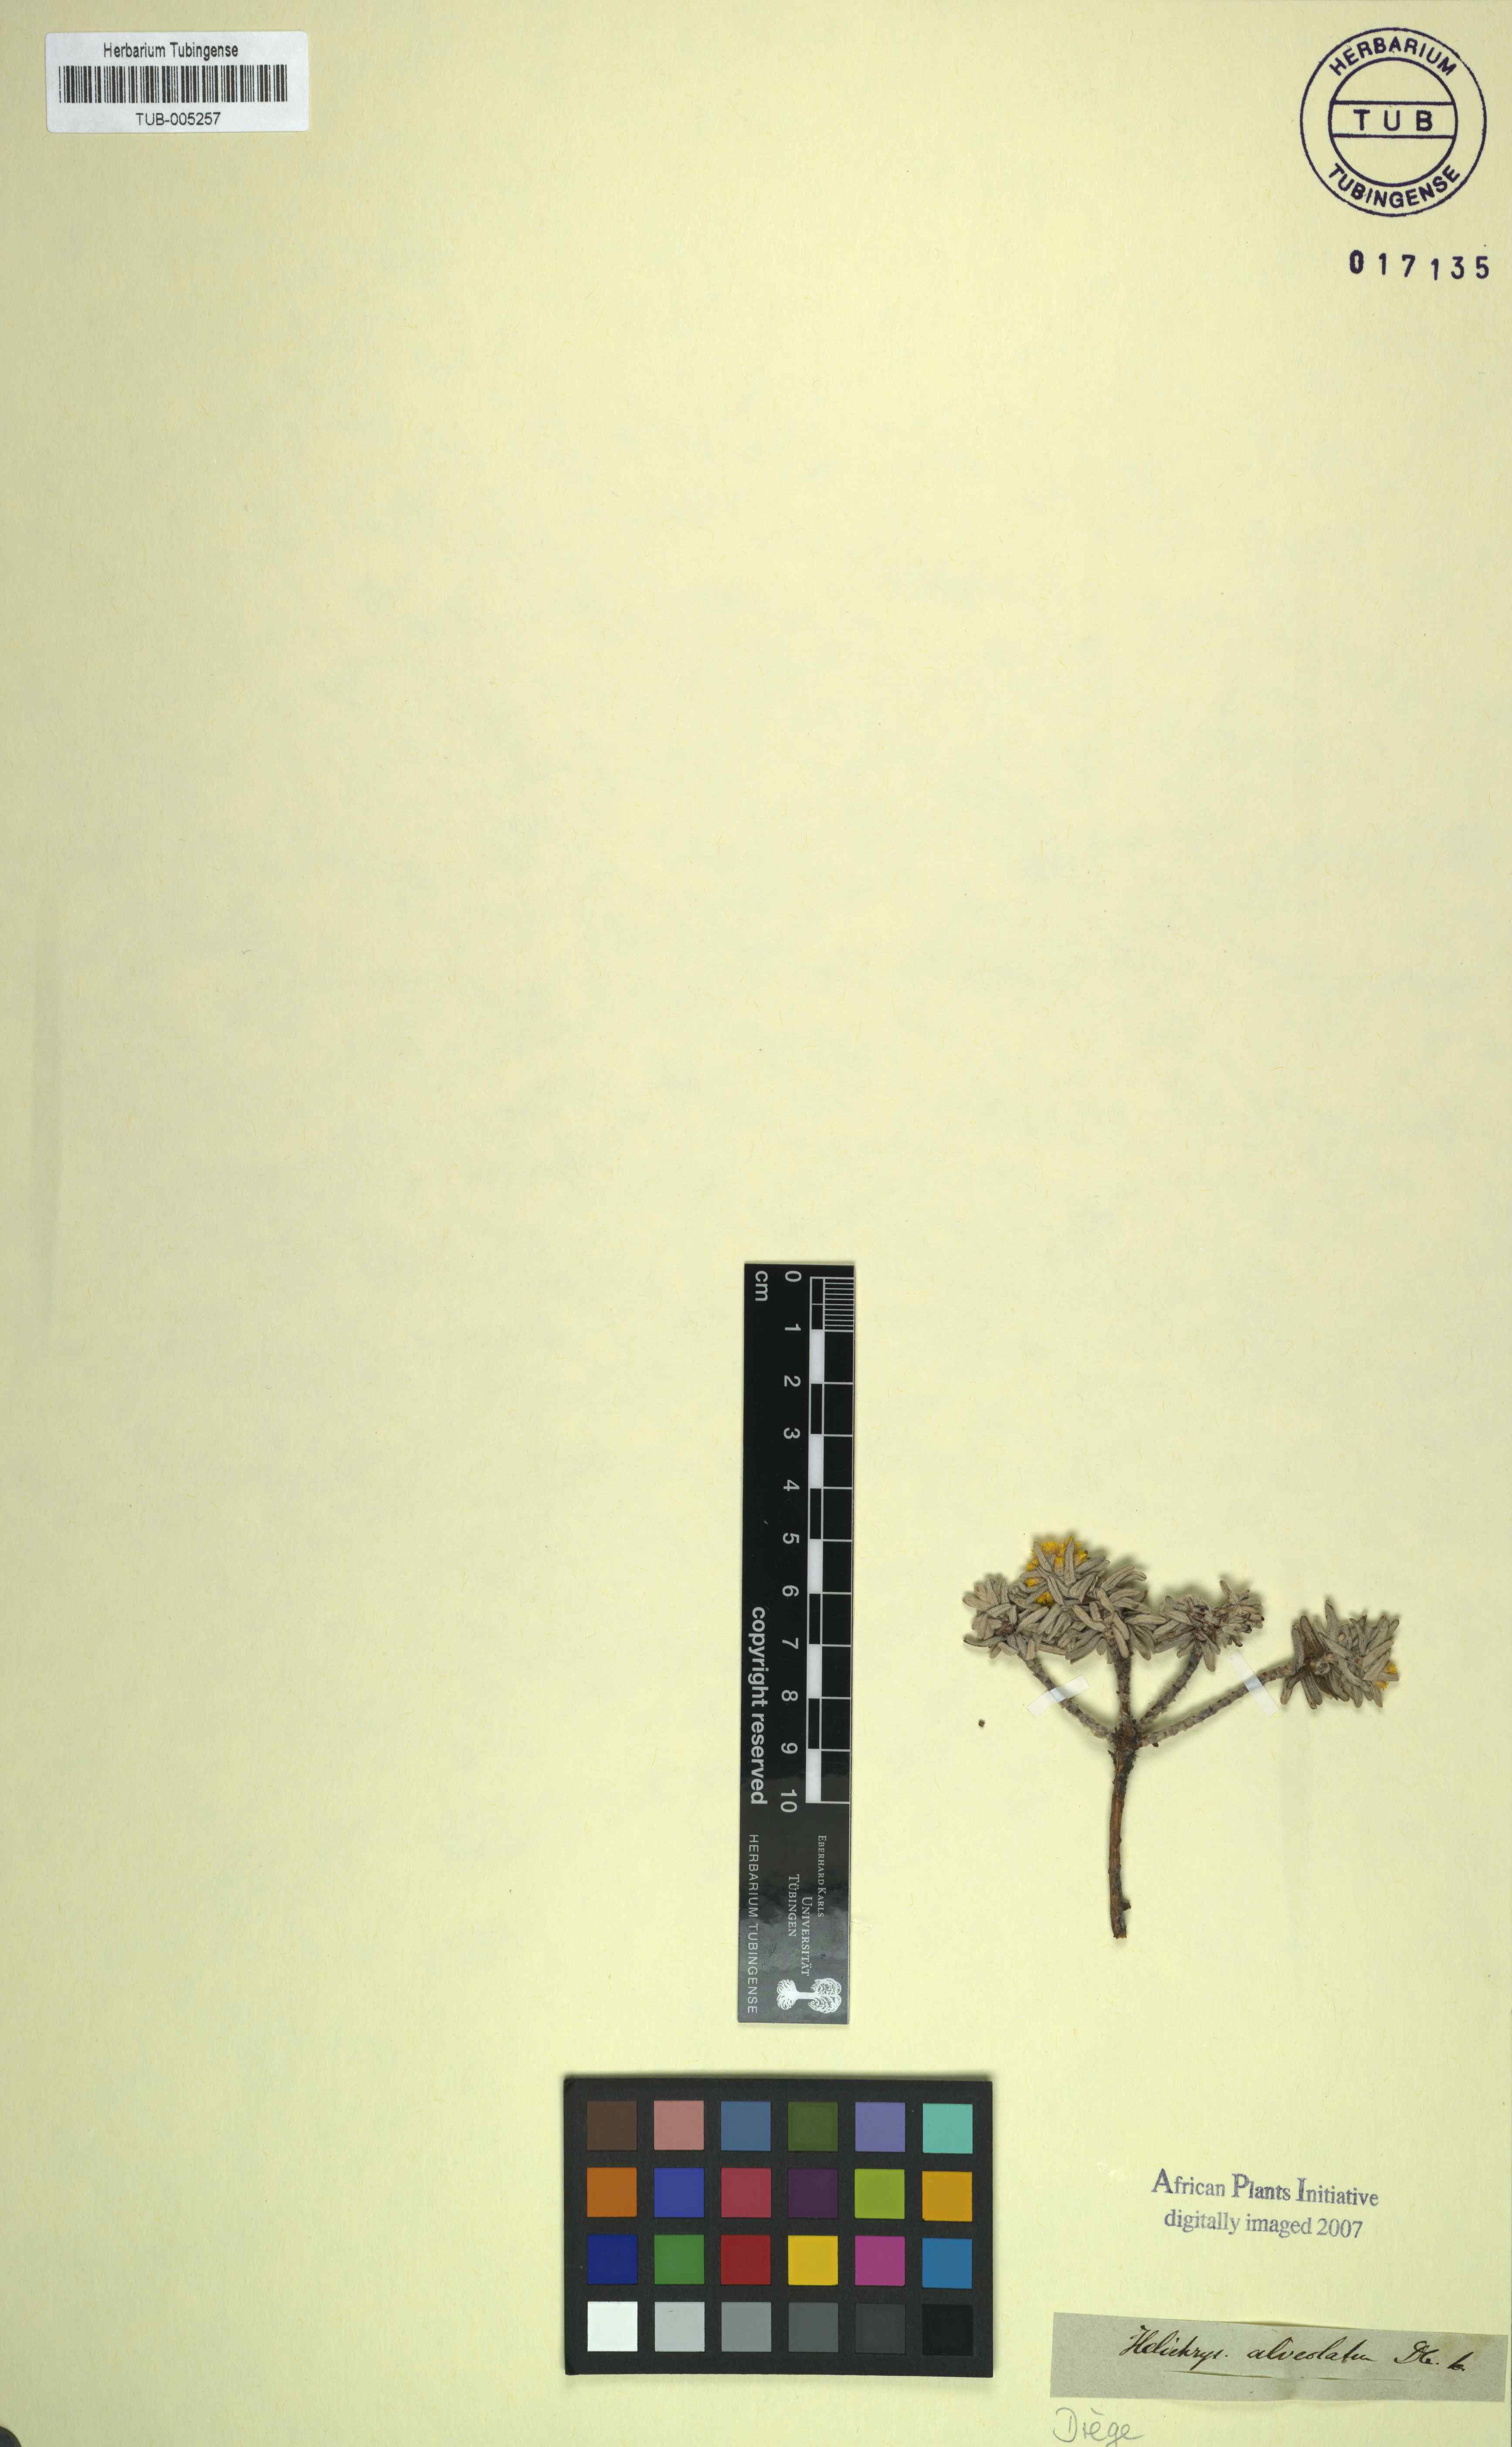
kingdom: Plantae
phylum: Tracheophyta
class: Magnoliopsida
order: Asterales
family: Asteraceae
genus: Helichrysum
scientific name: Helichrysum trilineatum
